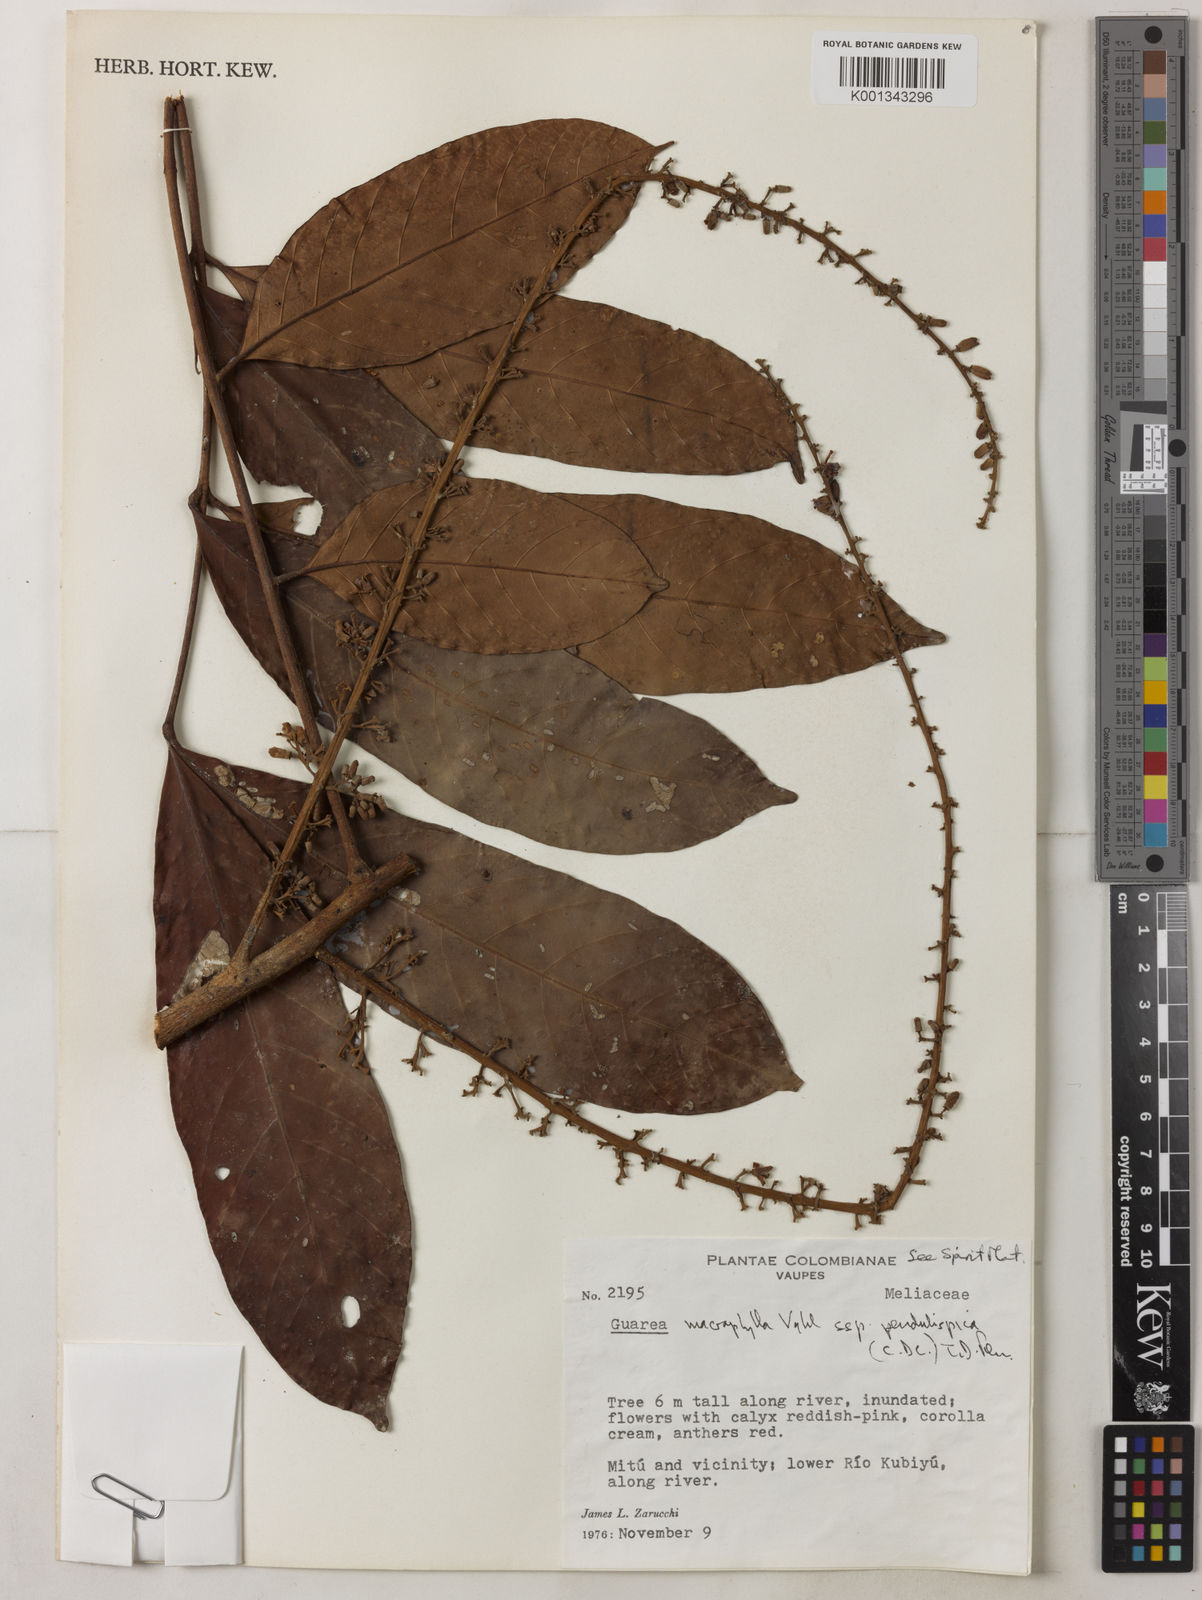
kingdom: Plantae
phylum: Tracheophyta
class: Magnoliopsida
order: Sapindales
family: Meliaceae
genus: Guarea
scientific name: Guarea macrophylla
